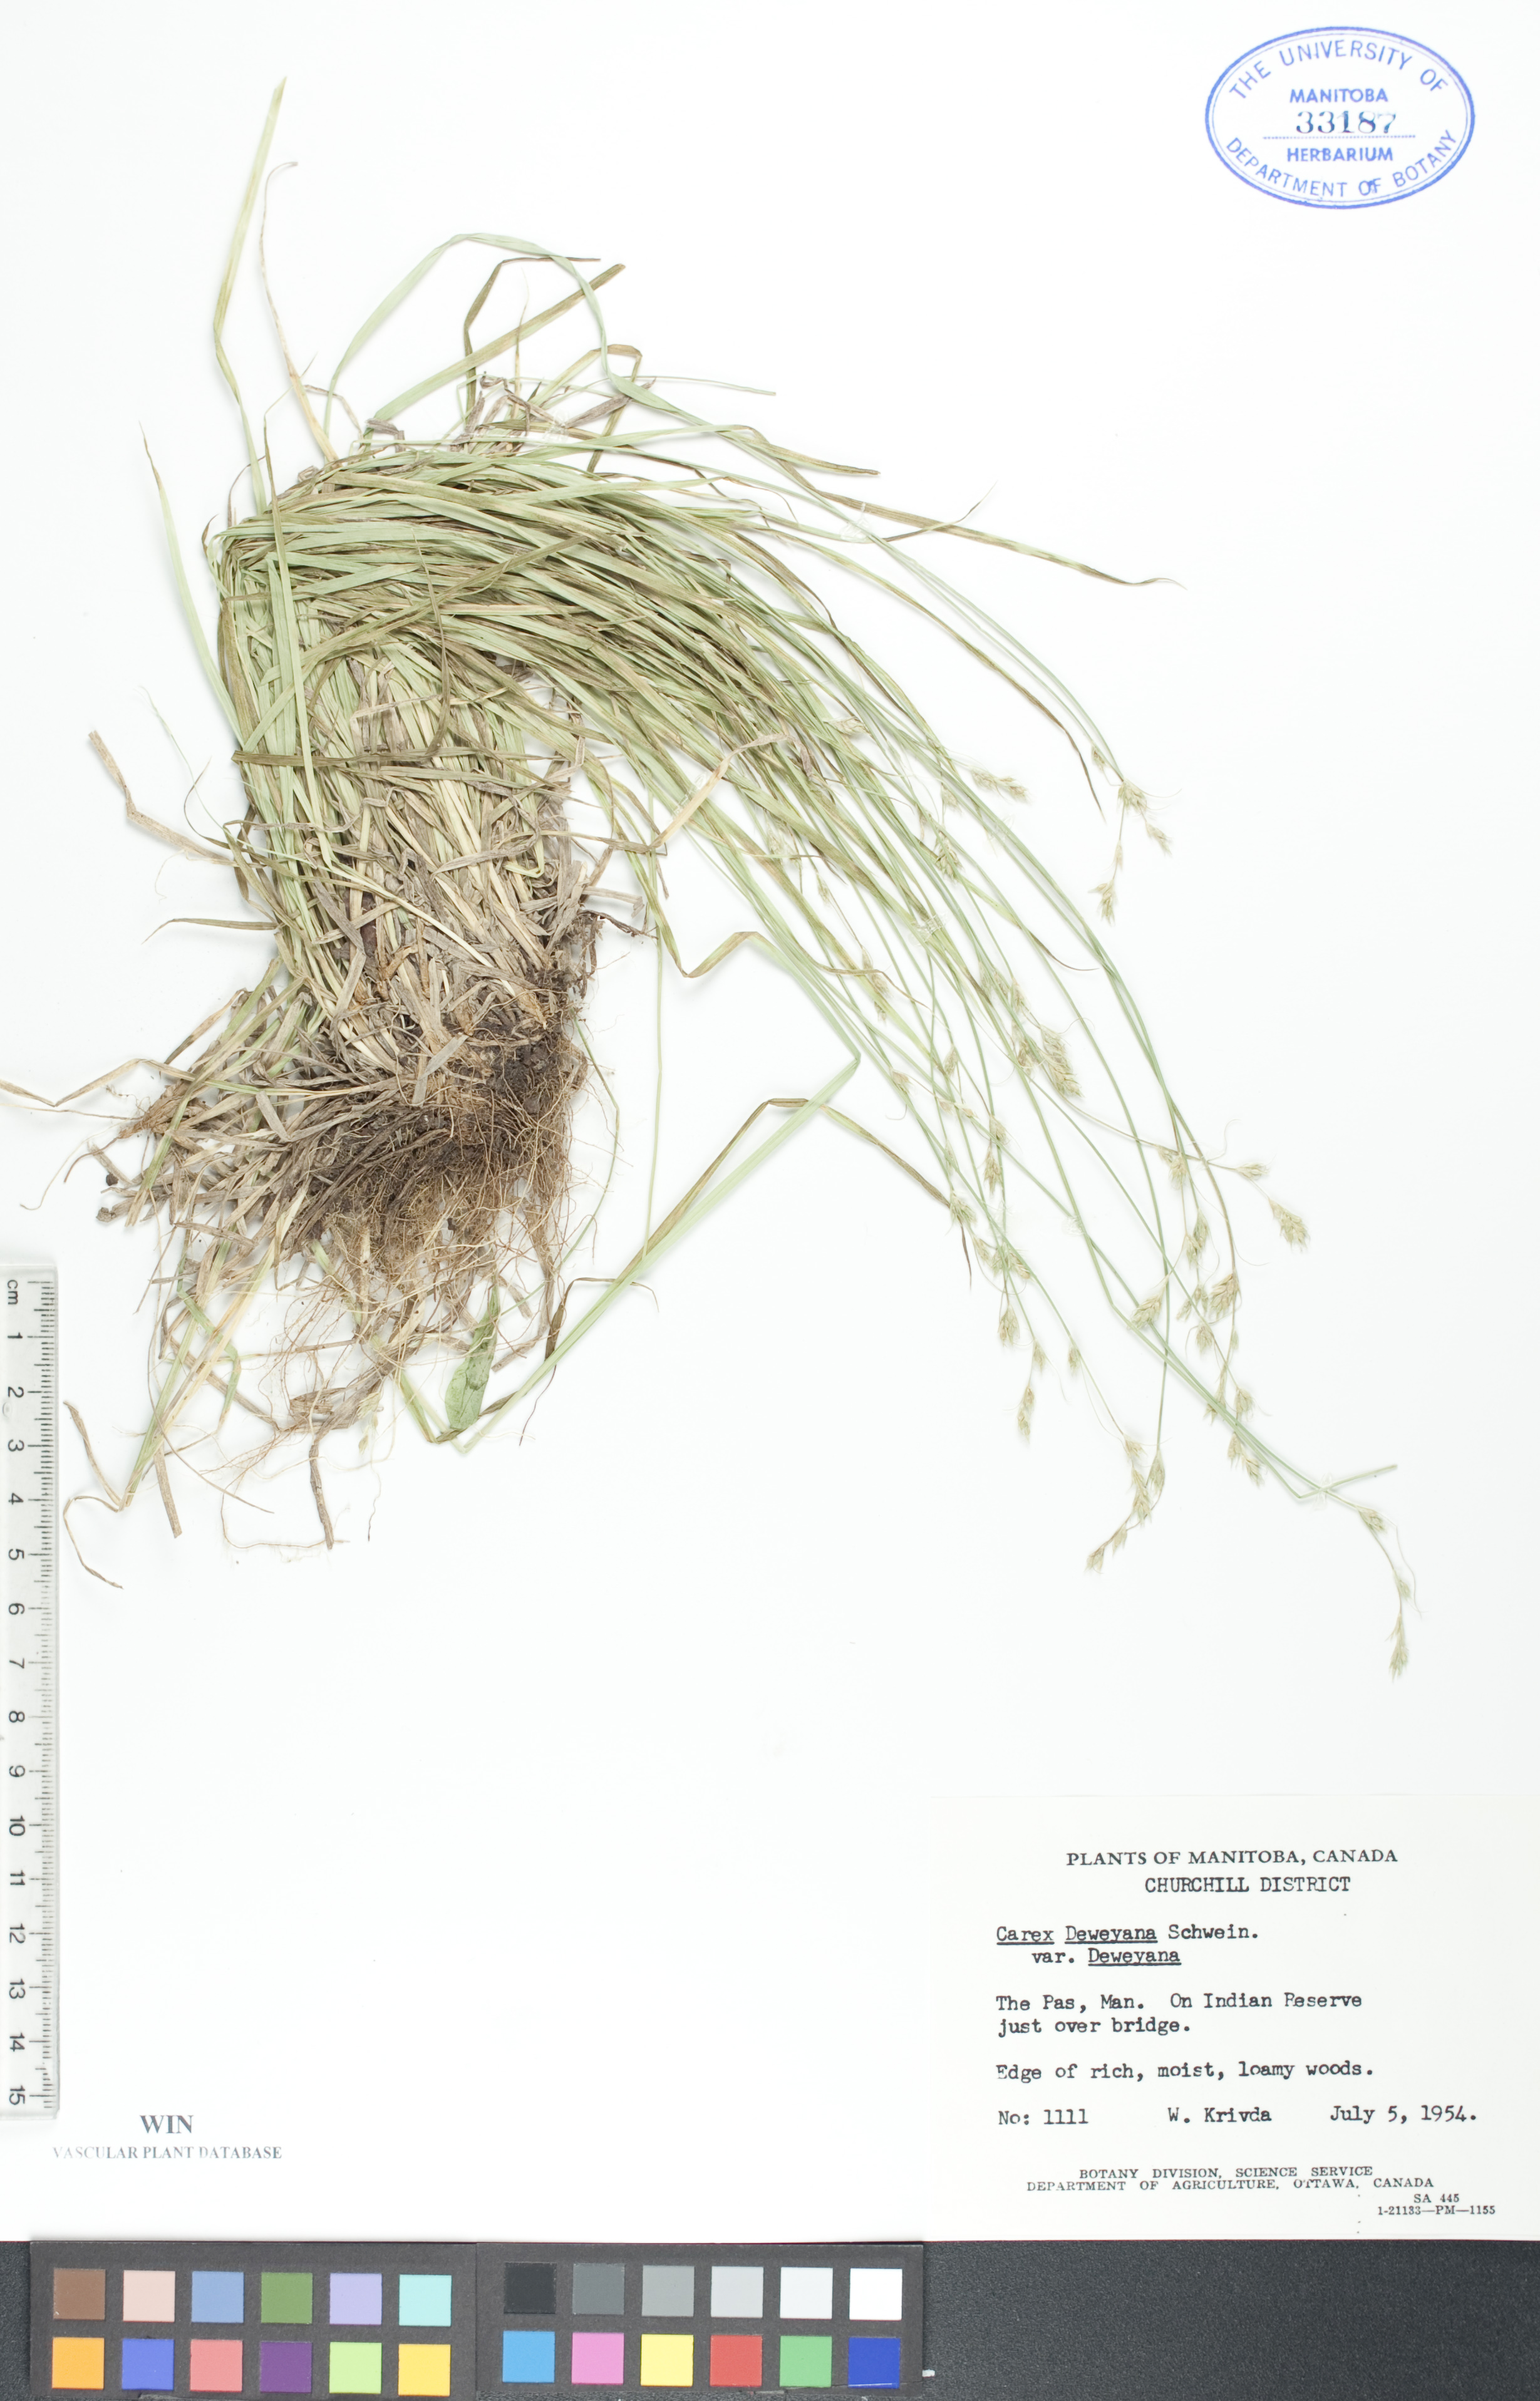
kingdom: Plantae
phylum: Tracheophyta
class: Liliopsida
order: Poales
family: Cyperaceae
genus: Carex
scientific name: Carex deweyana
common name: Dewey's sedge
